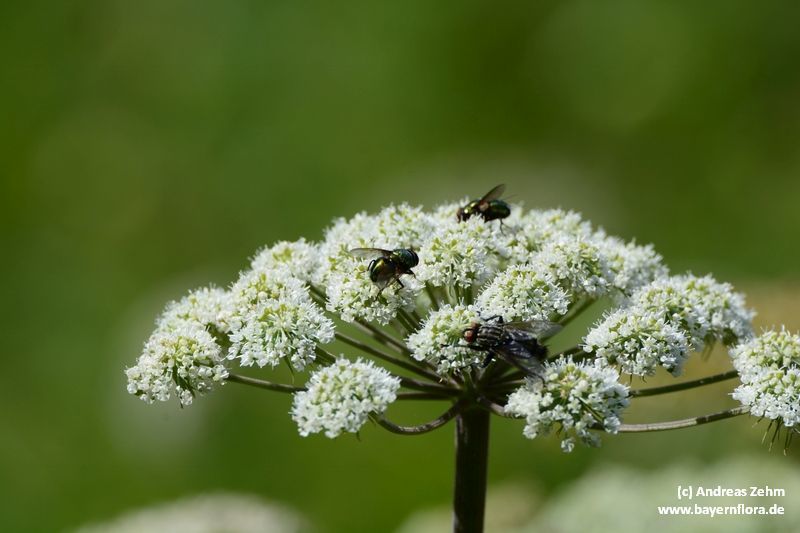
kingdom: Plantae
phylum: Tracheophyta
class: Magnoliopsida
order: Apiales
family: Apiaceae
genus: Angelica
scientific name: Angelica sylvestris
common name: Wild angelica
